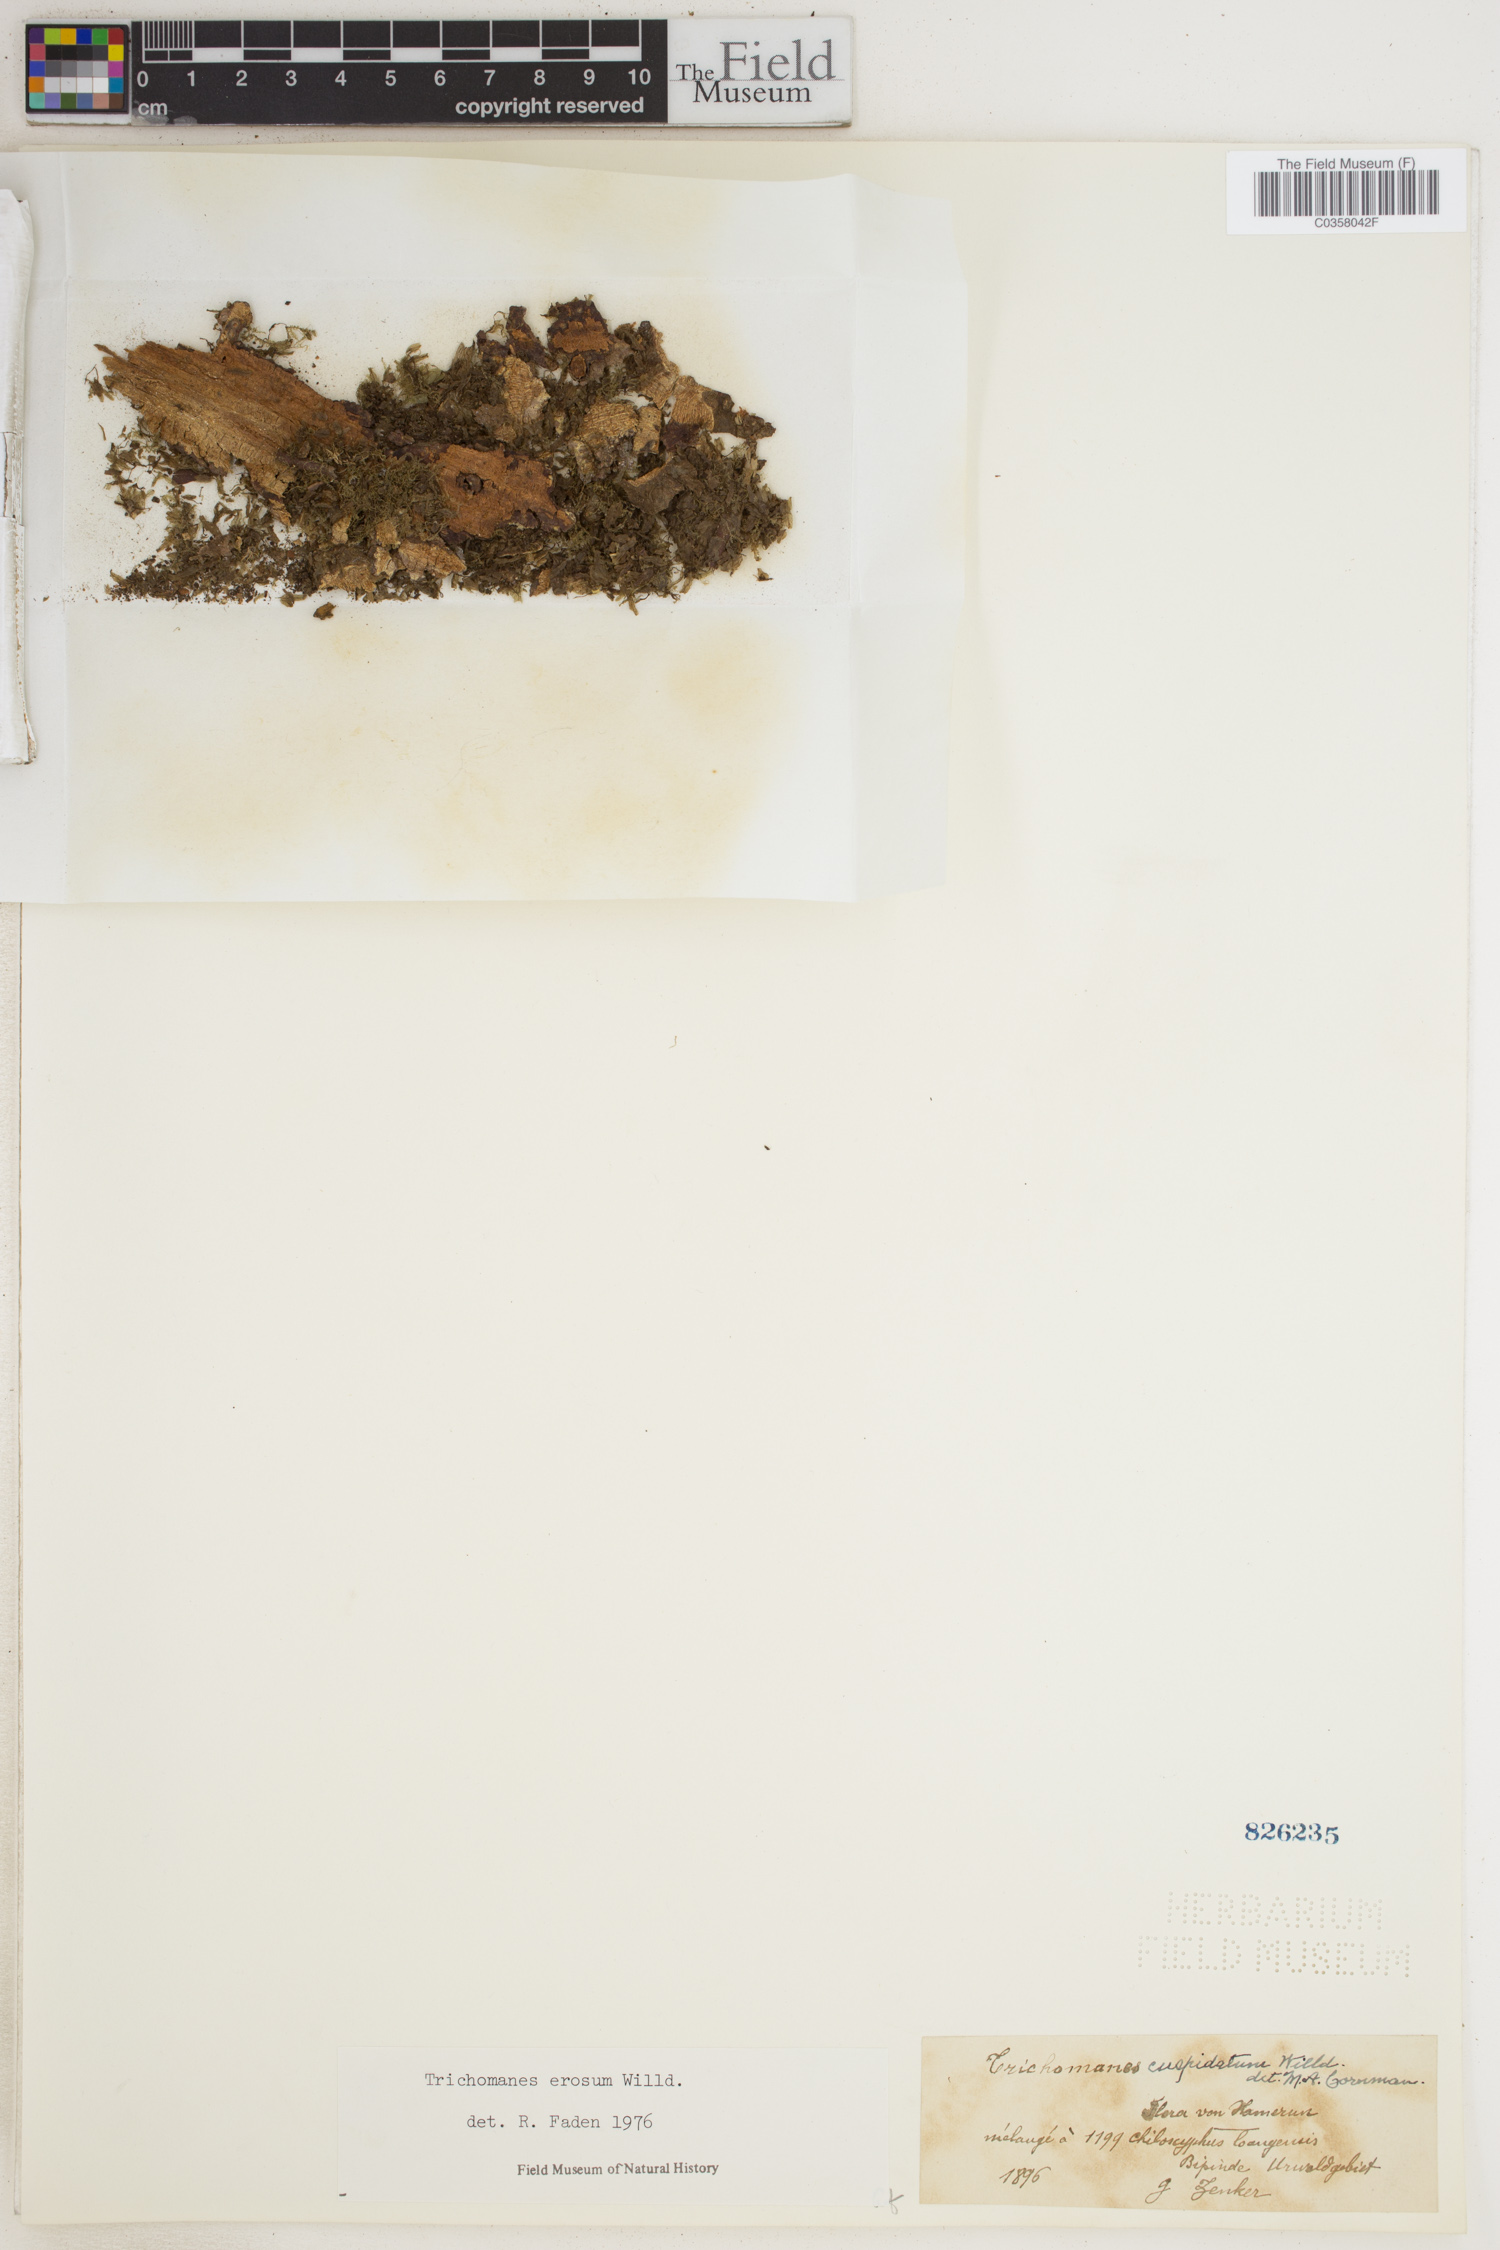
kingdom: Plantae
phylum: Tracheophyta
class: Polypodiopsida
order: Hymenophyllales
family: Hymenophyllaceae
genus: Didymoglossum
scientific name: Didymoglossum erosum
